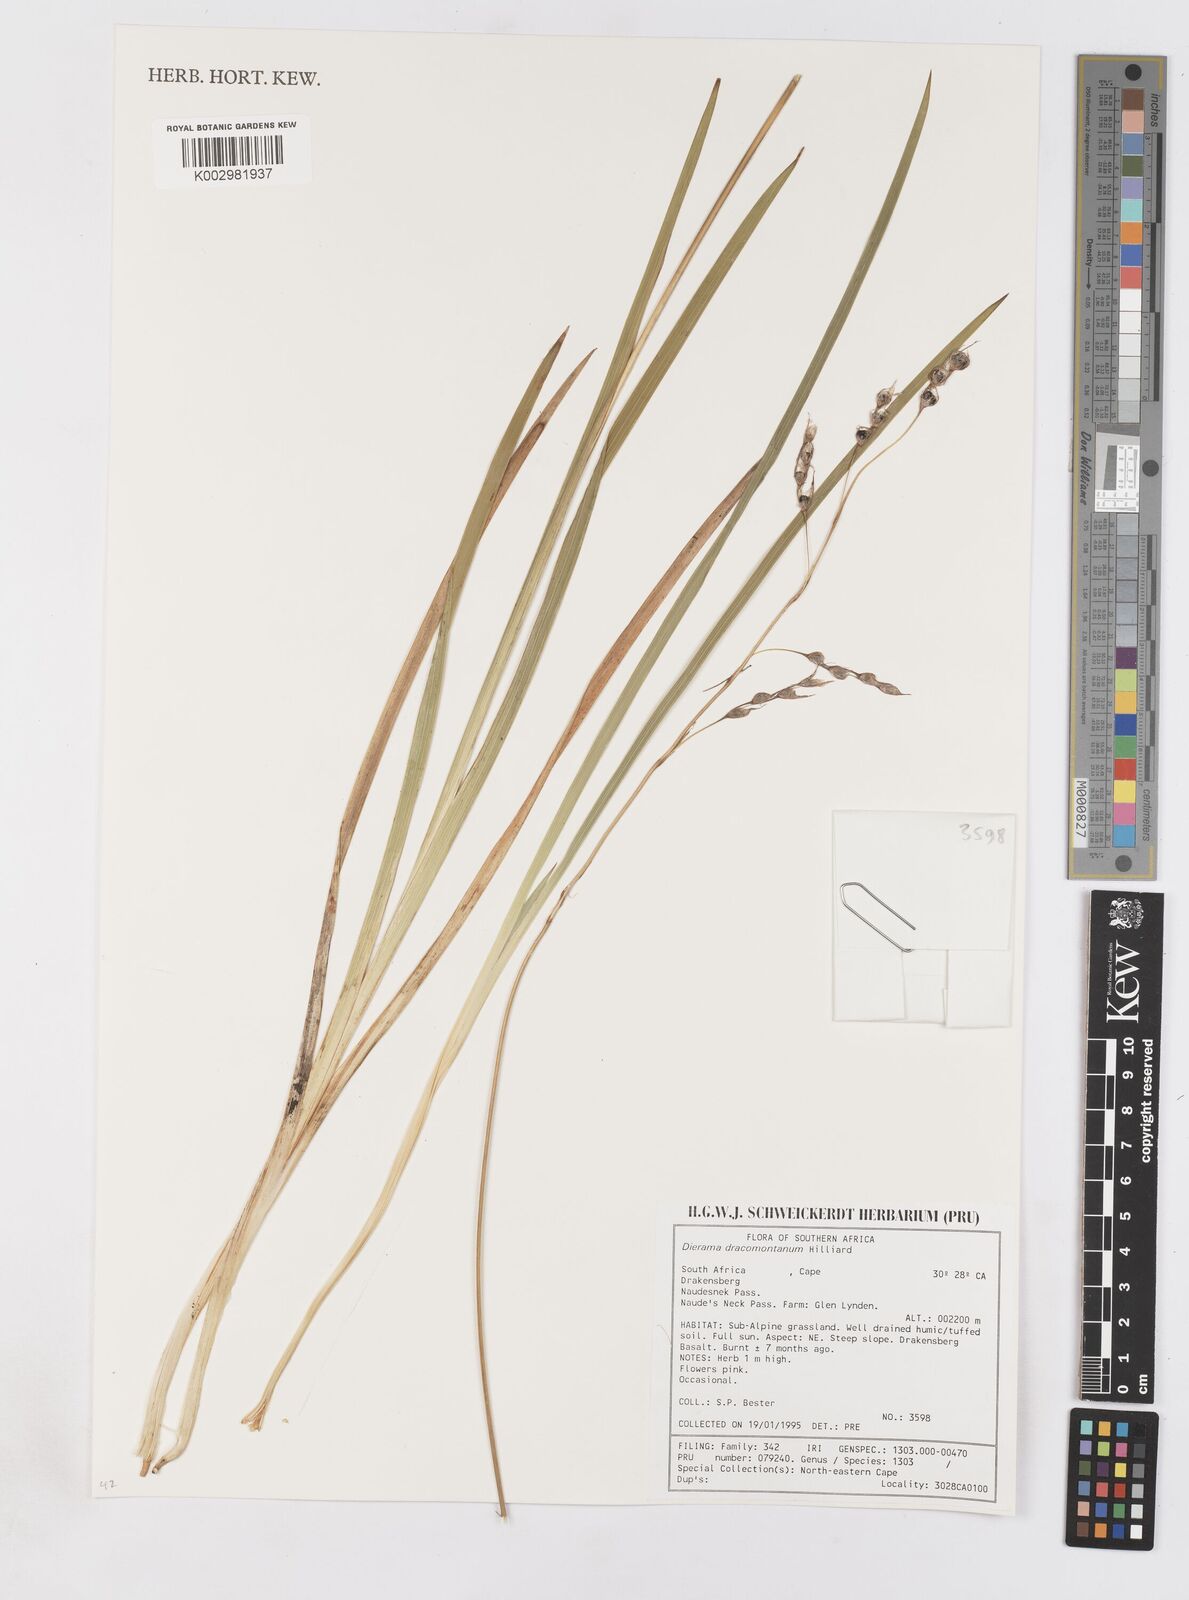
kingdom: Plantae
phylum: Tracheophyta
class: Liliopsida
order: Asparagales
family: Iridaceae
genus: Dierama
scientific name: Dierama dracomontanum
